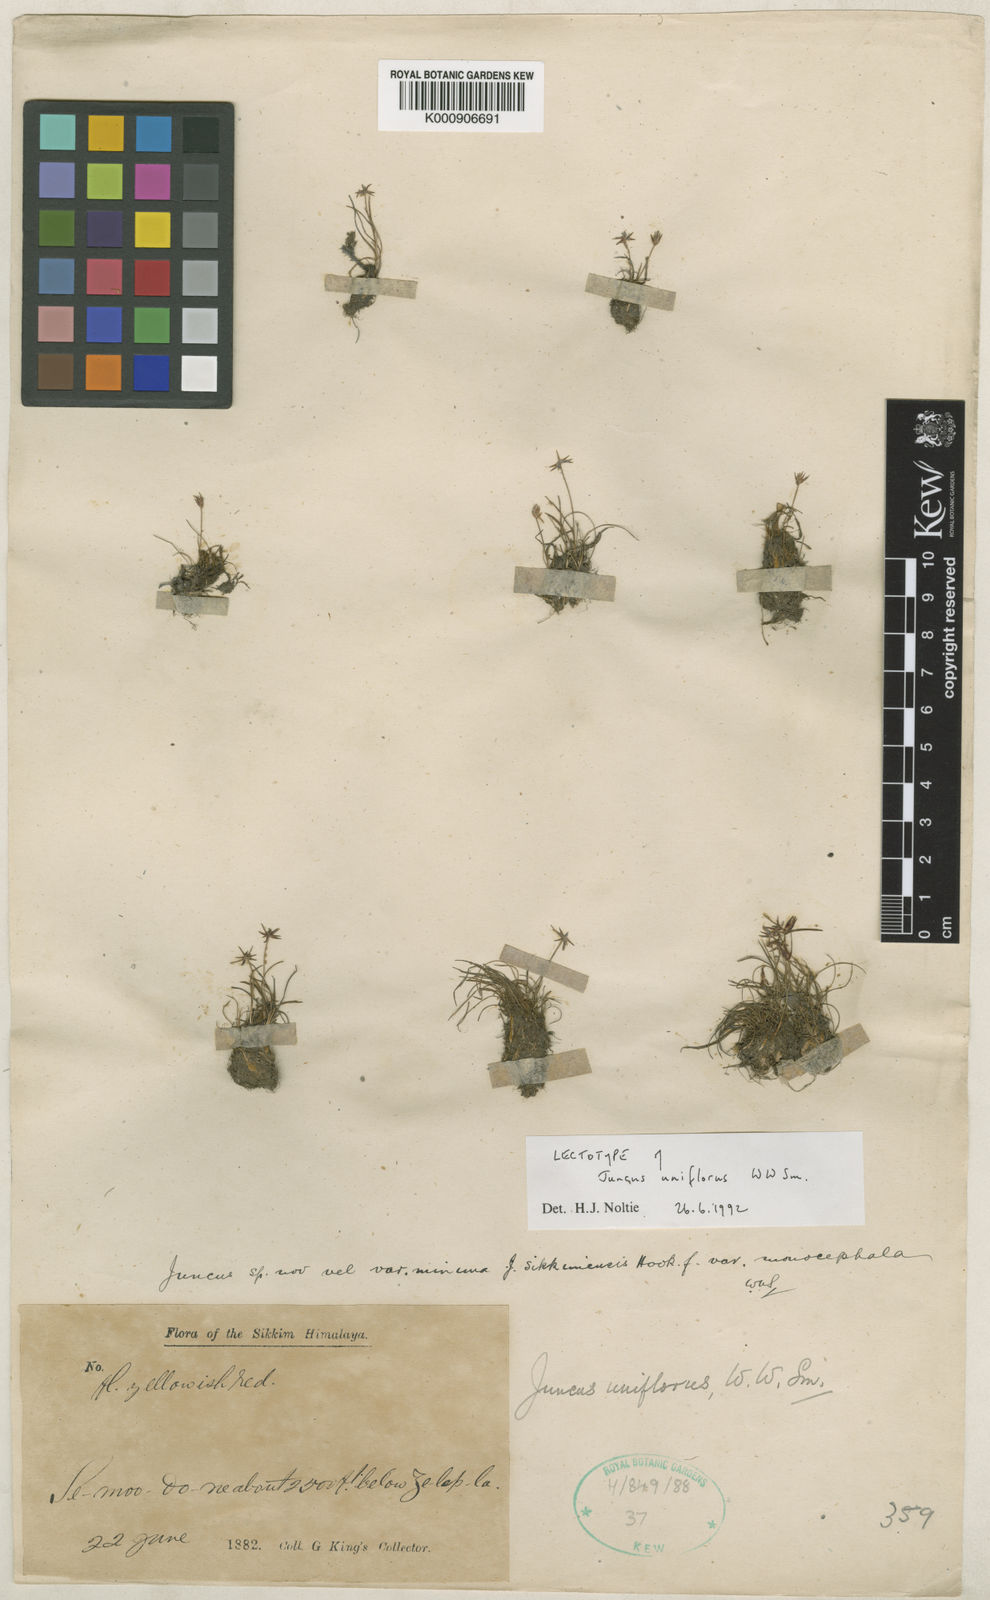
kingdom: Plantae
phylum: Tracheophyta
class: Liliopsida
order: Poales
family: Juncaceae
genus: Juncus
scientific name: Juncus uniflorus
